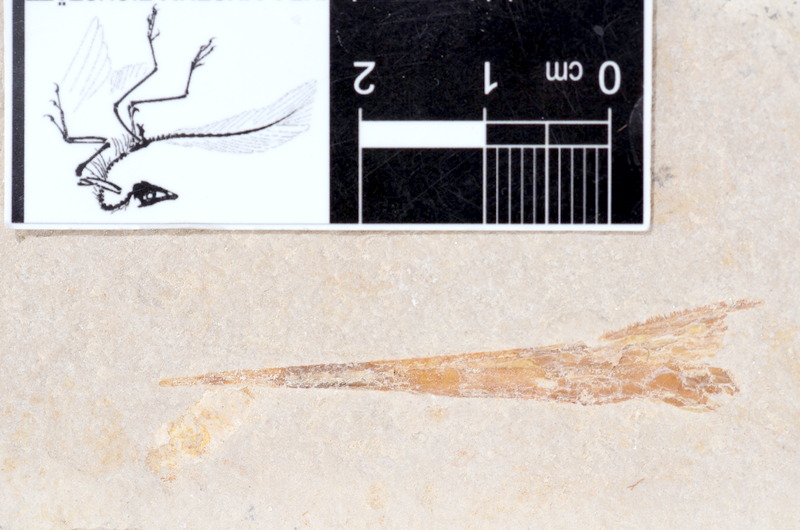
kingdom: Animalia
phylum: Chordata
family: Aspidorhynchidae
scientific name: Aspidorhynchidae
